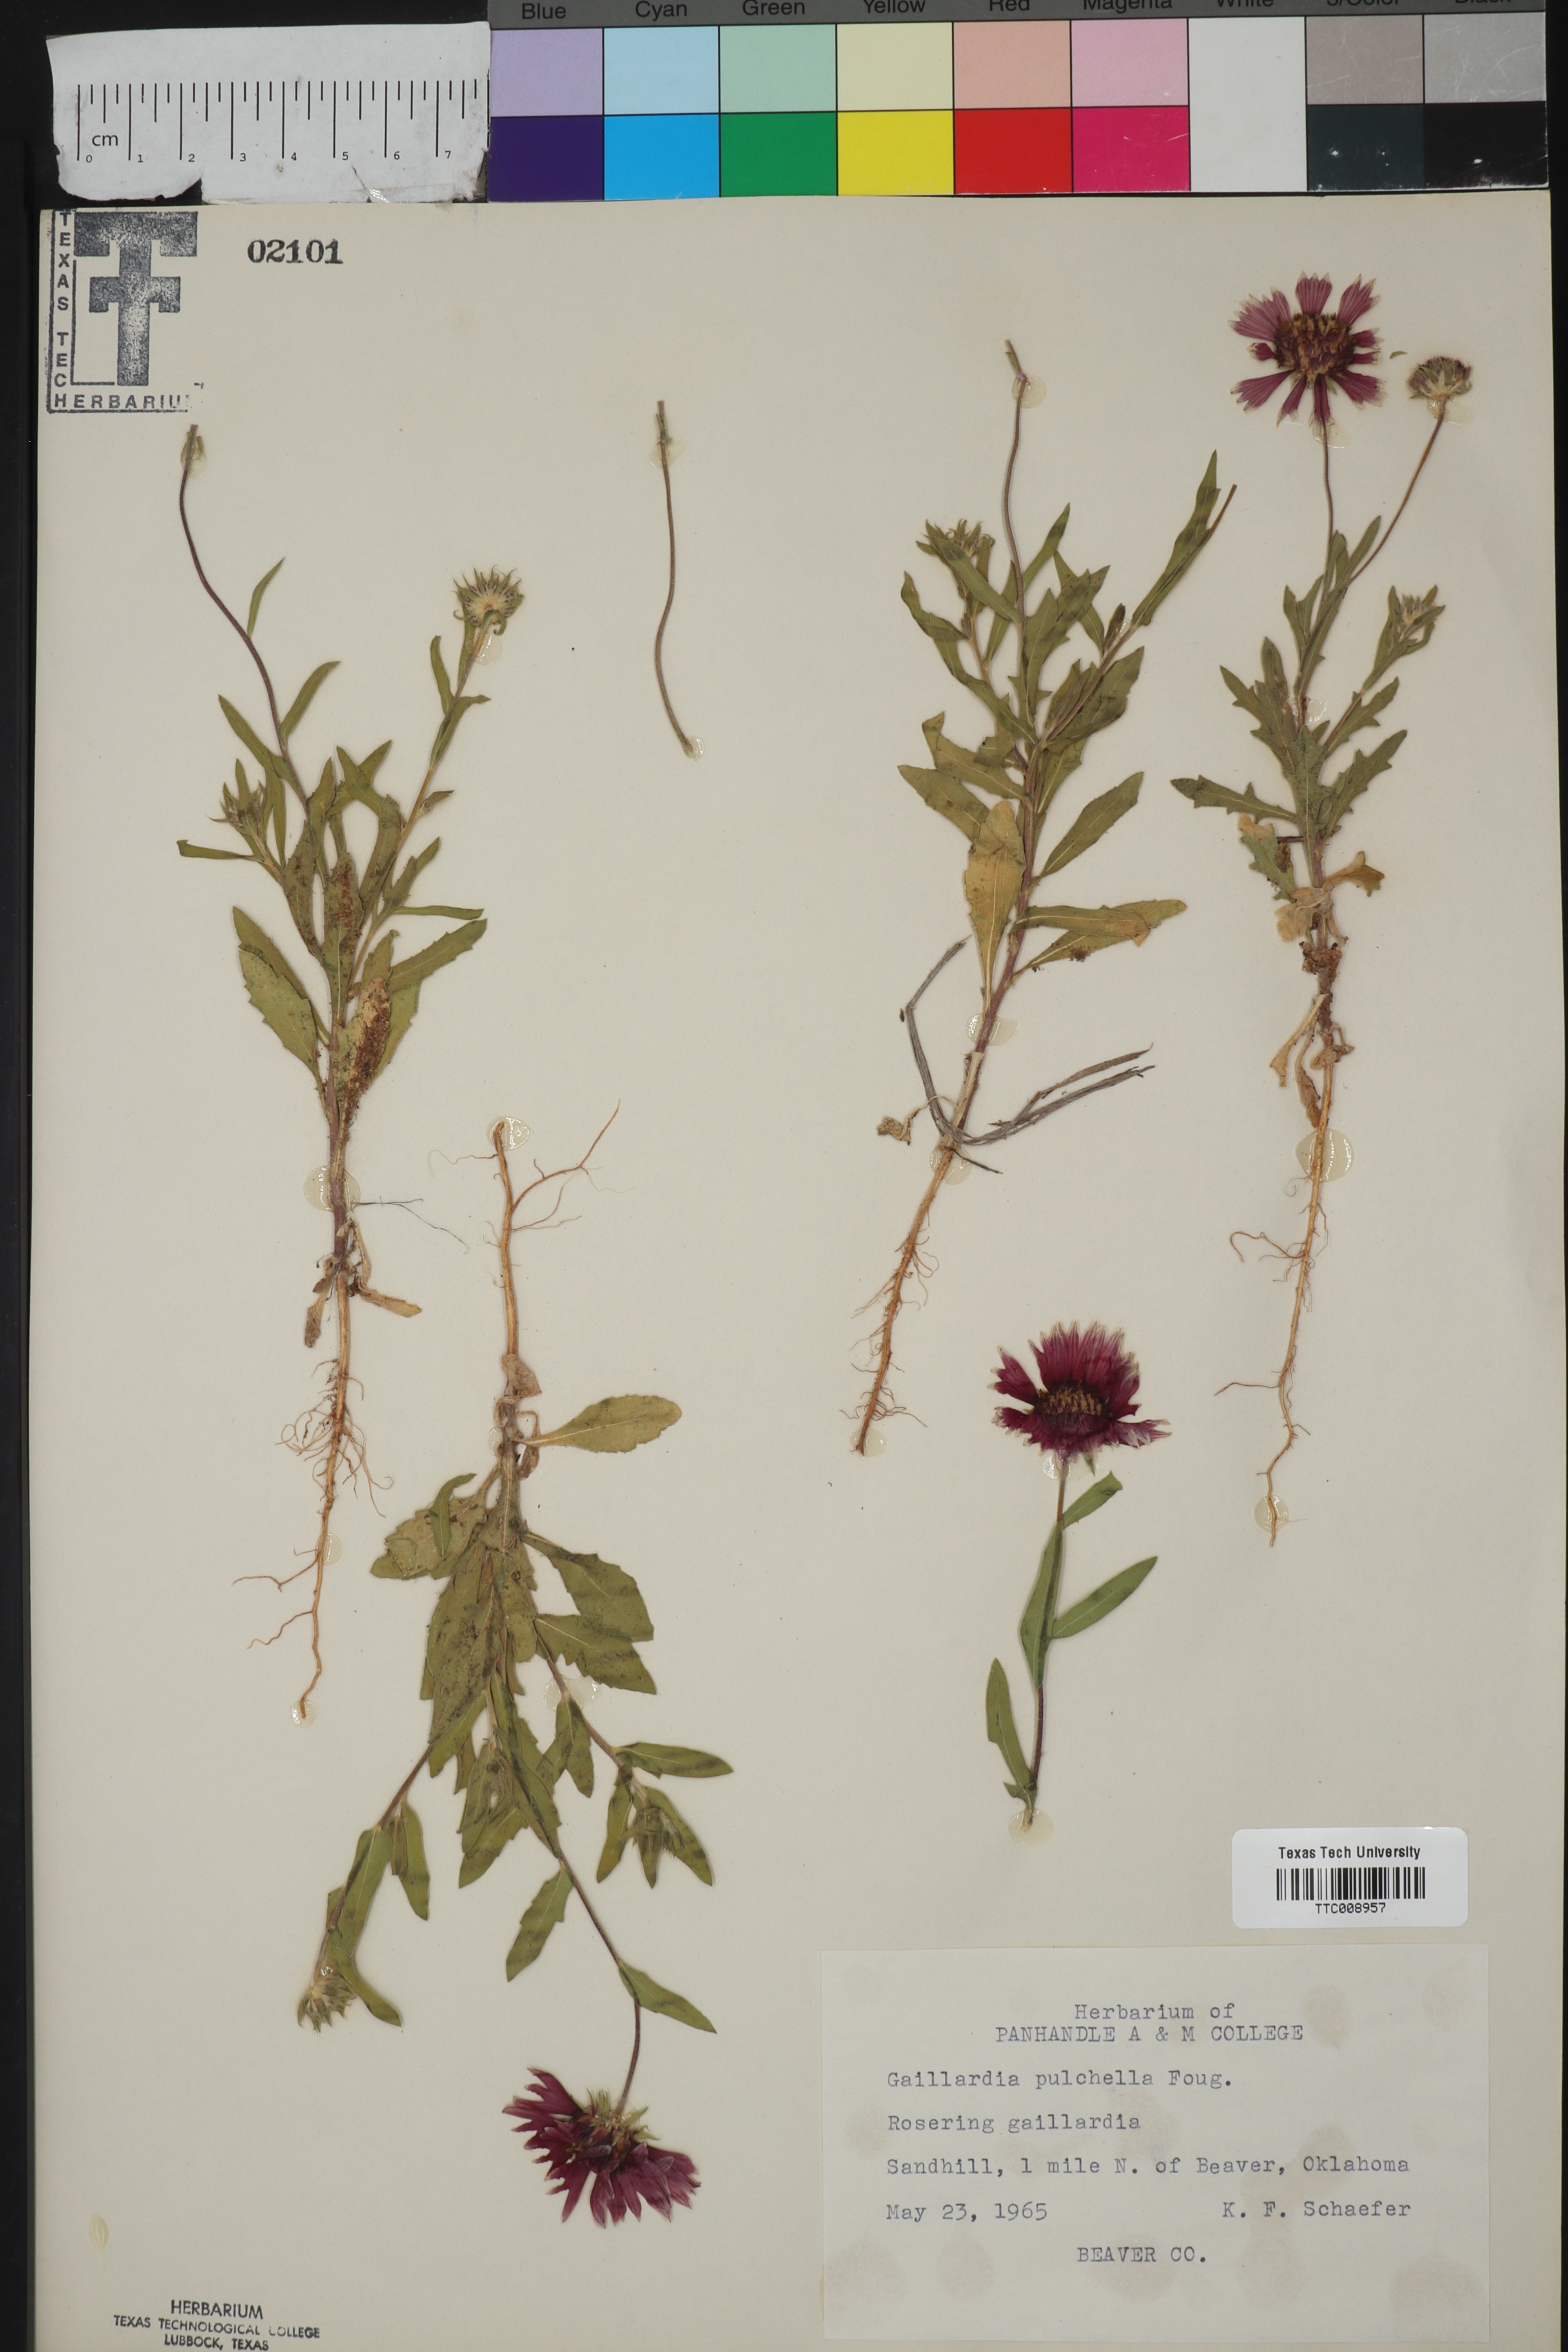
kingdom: Plantae
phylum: Tracheophyta
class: Magnoliopsida
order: Asterales
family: Asteraceae
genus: Gaillardia
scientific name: Gaillardia pulchella
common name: Firewheel
